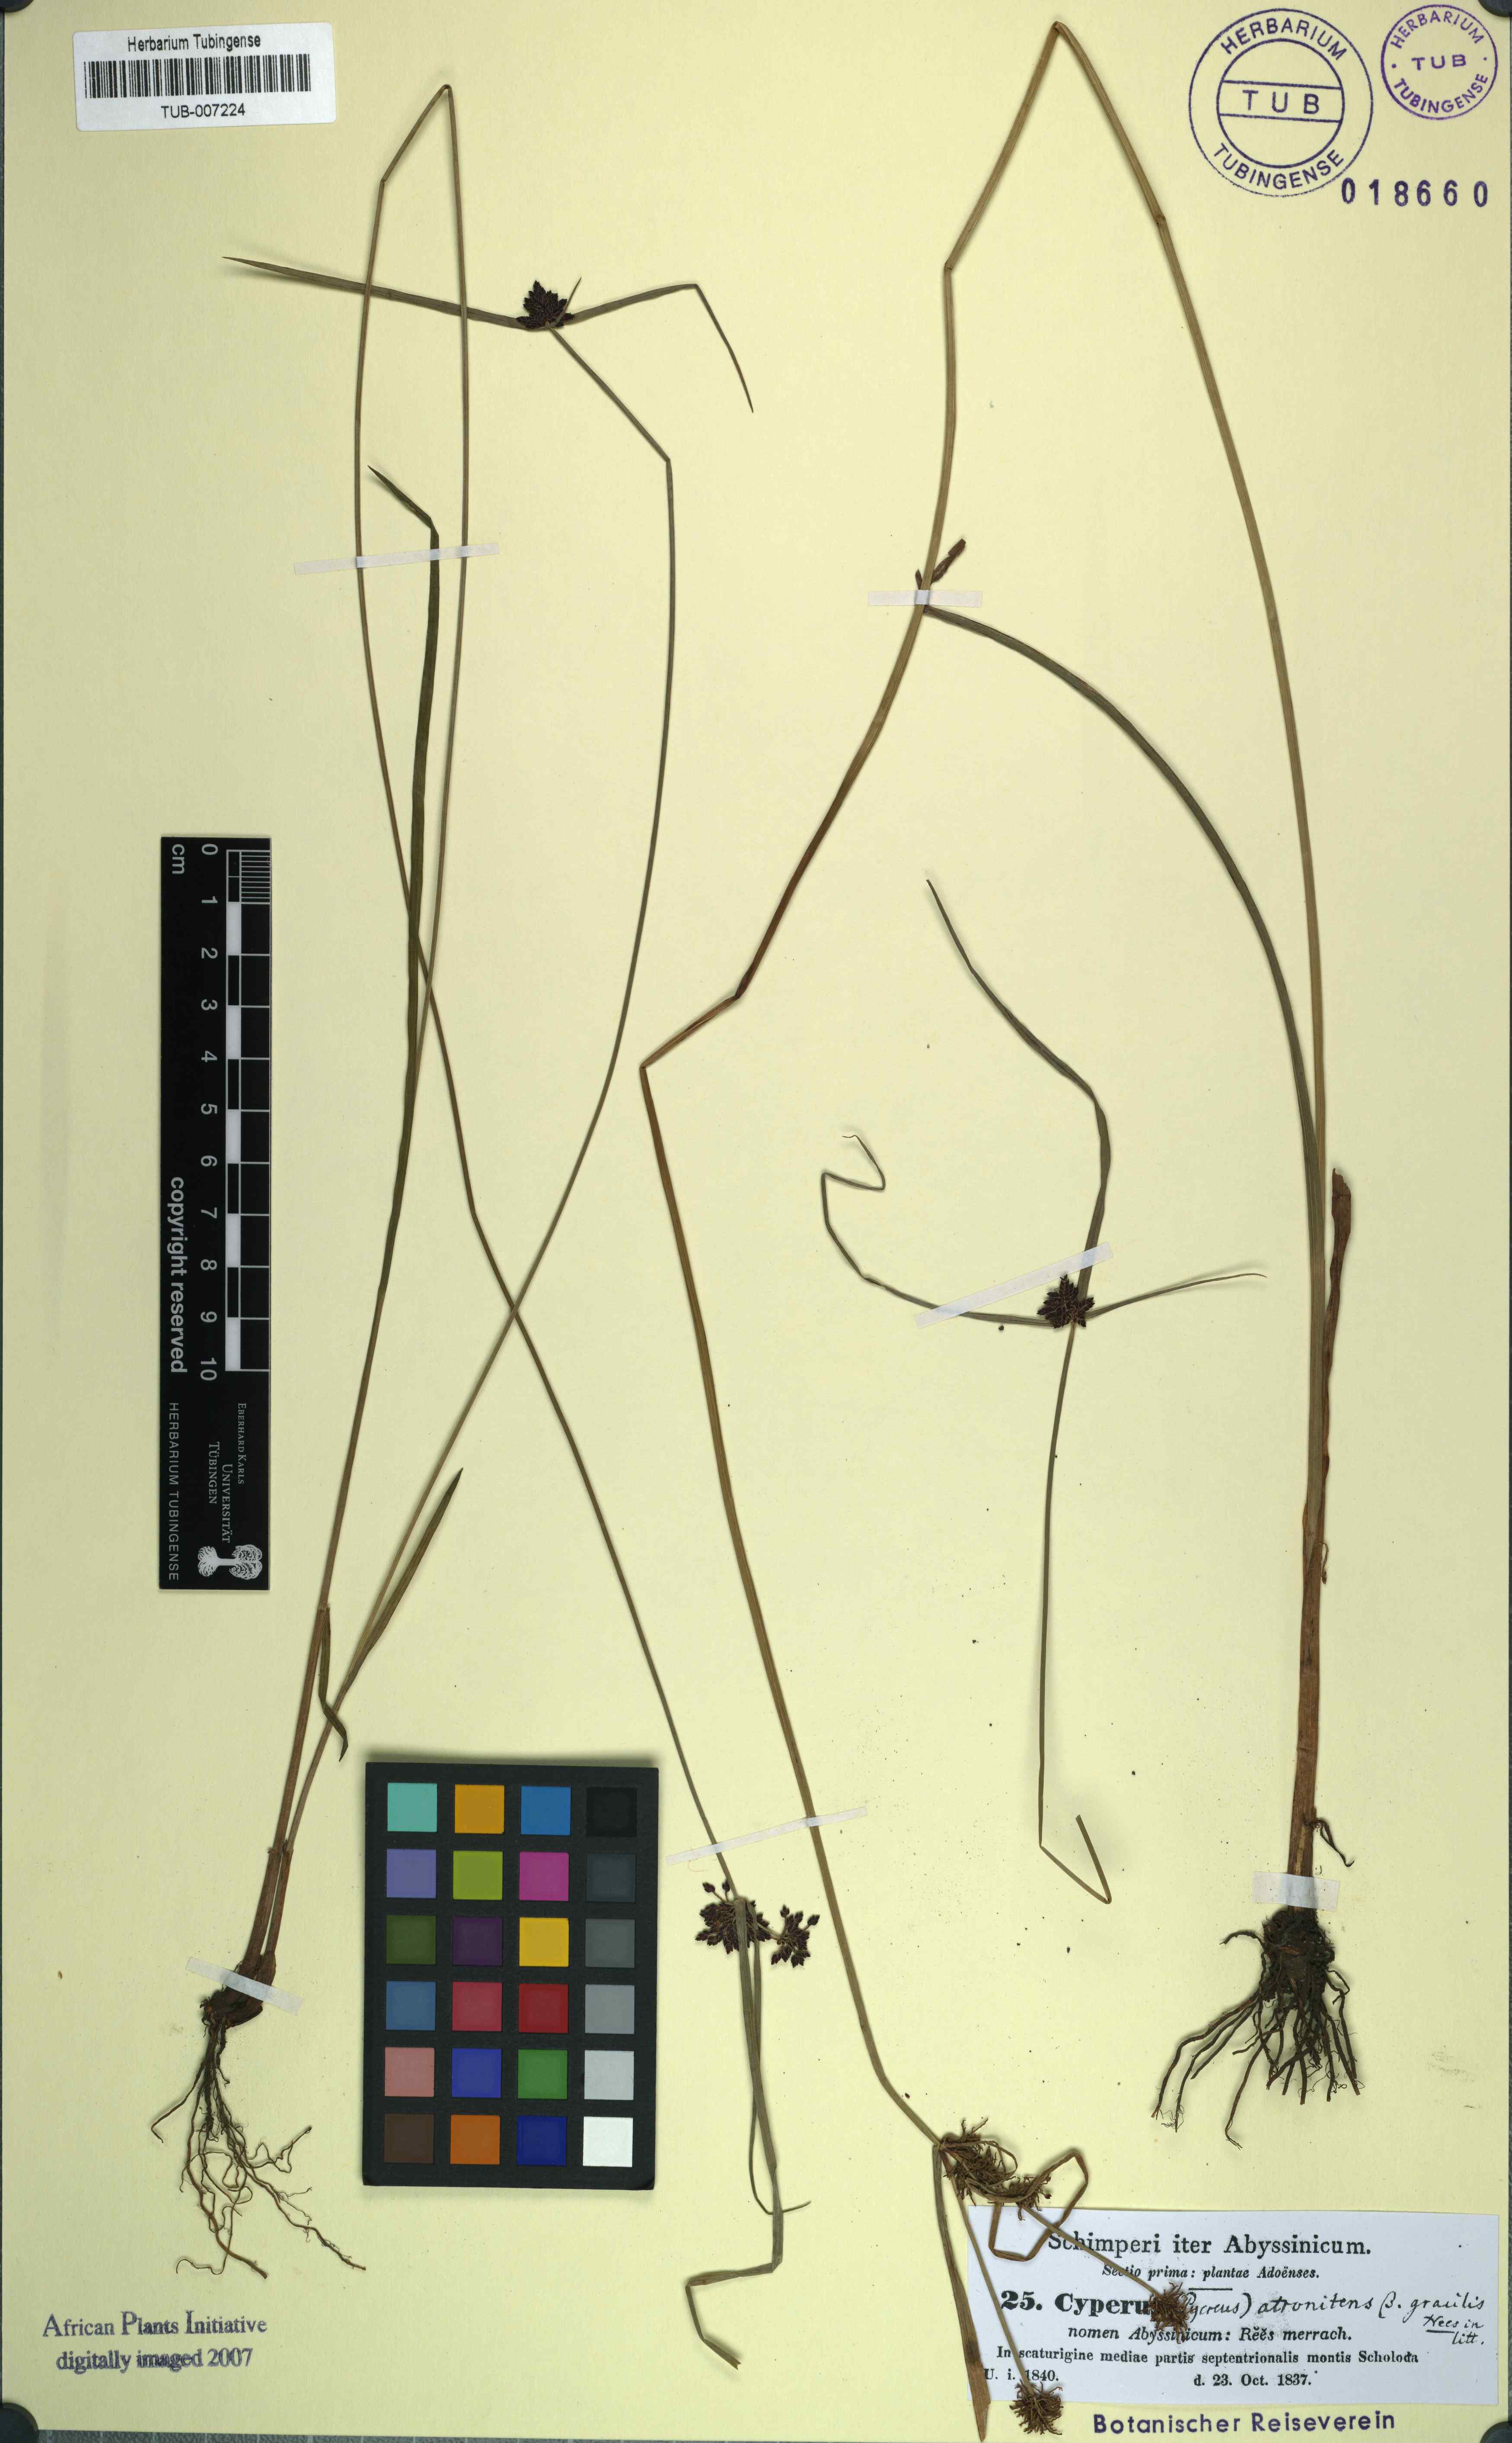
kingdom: Plantae
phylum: Tracheophyta
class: Liliopsida
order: Poales
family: Cyperaceae
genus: Cyperus
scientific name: Cyperus elegantulus
